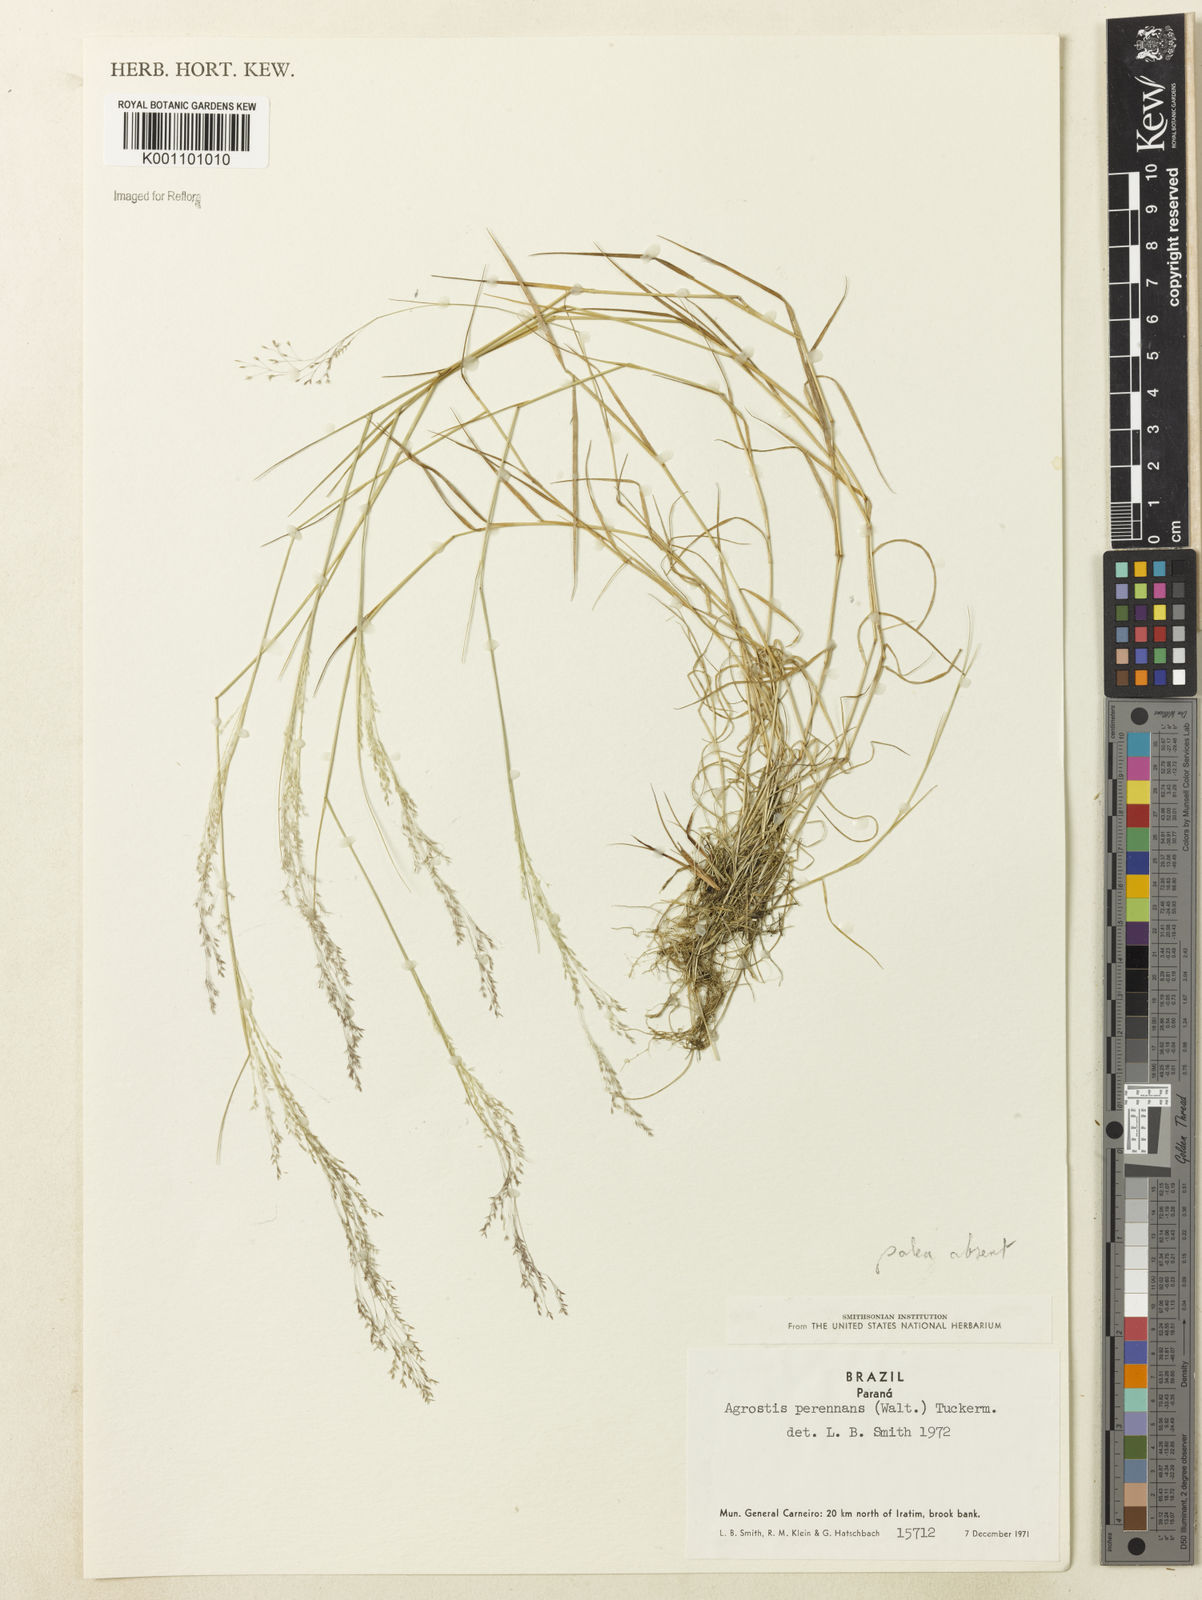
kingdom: Plantae
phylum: Tracheophyta
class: Liliopsida
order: Poales
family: Poaceae
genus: Agrostis
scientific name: Agrostis
